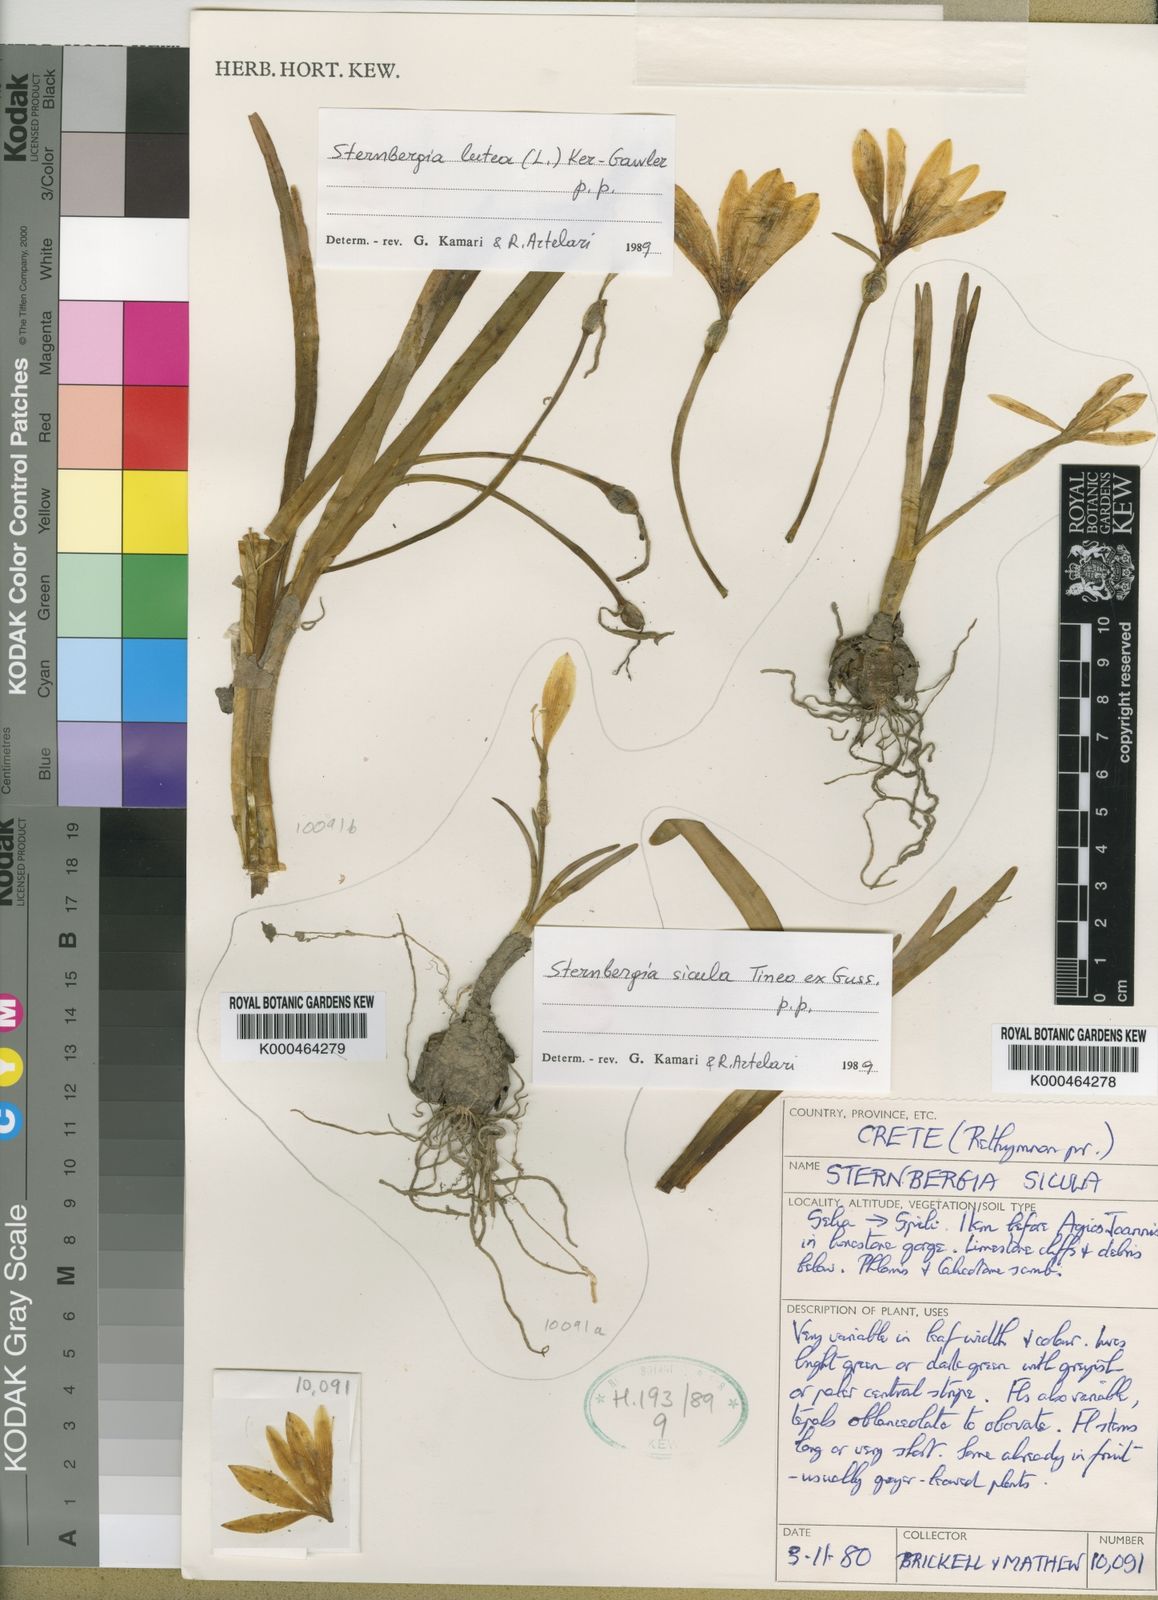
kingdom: Plantae
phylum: Tracheophyta
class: Liliopsida
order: Asparagales
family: Amaryllidaceae
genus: Sternbergia
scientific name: Sternbergia
